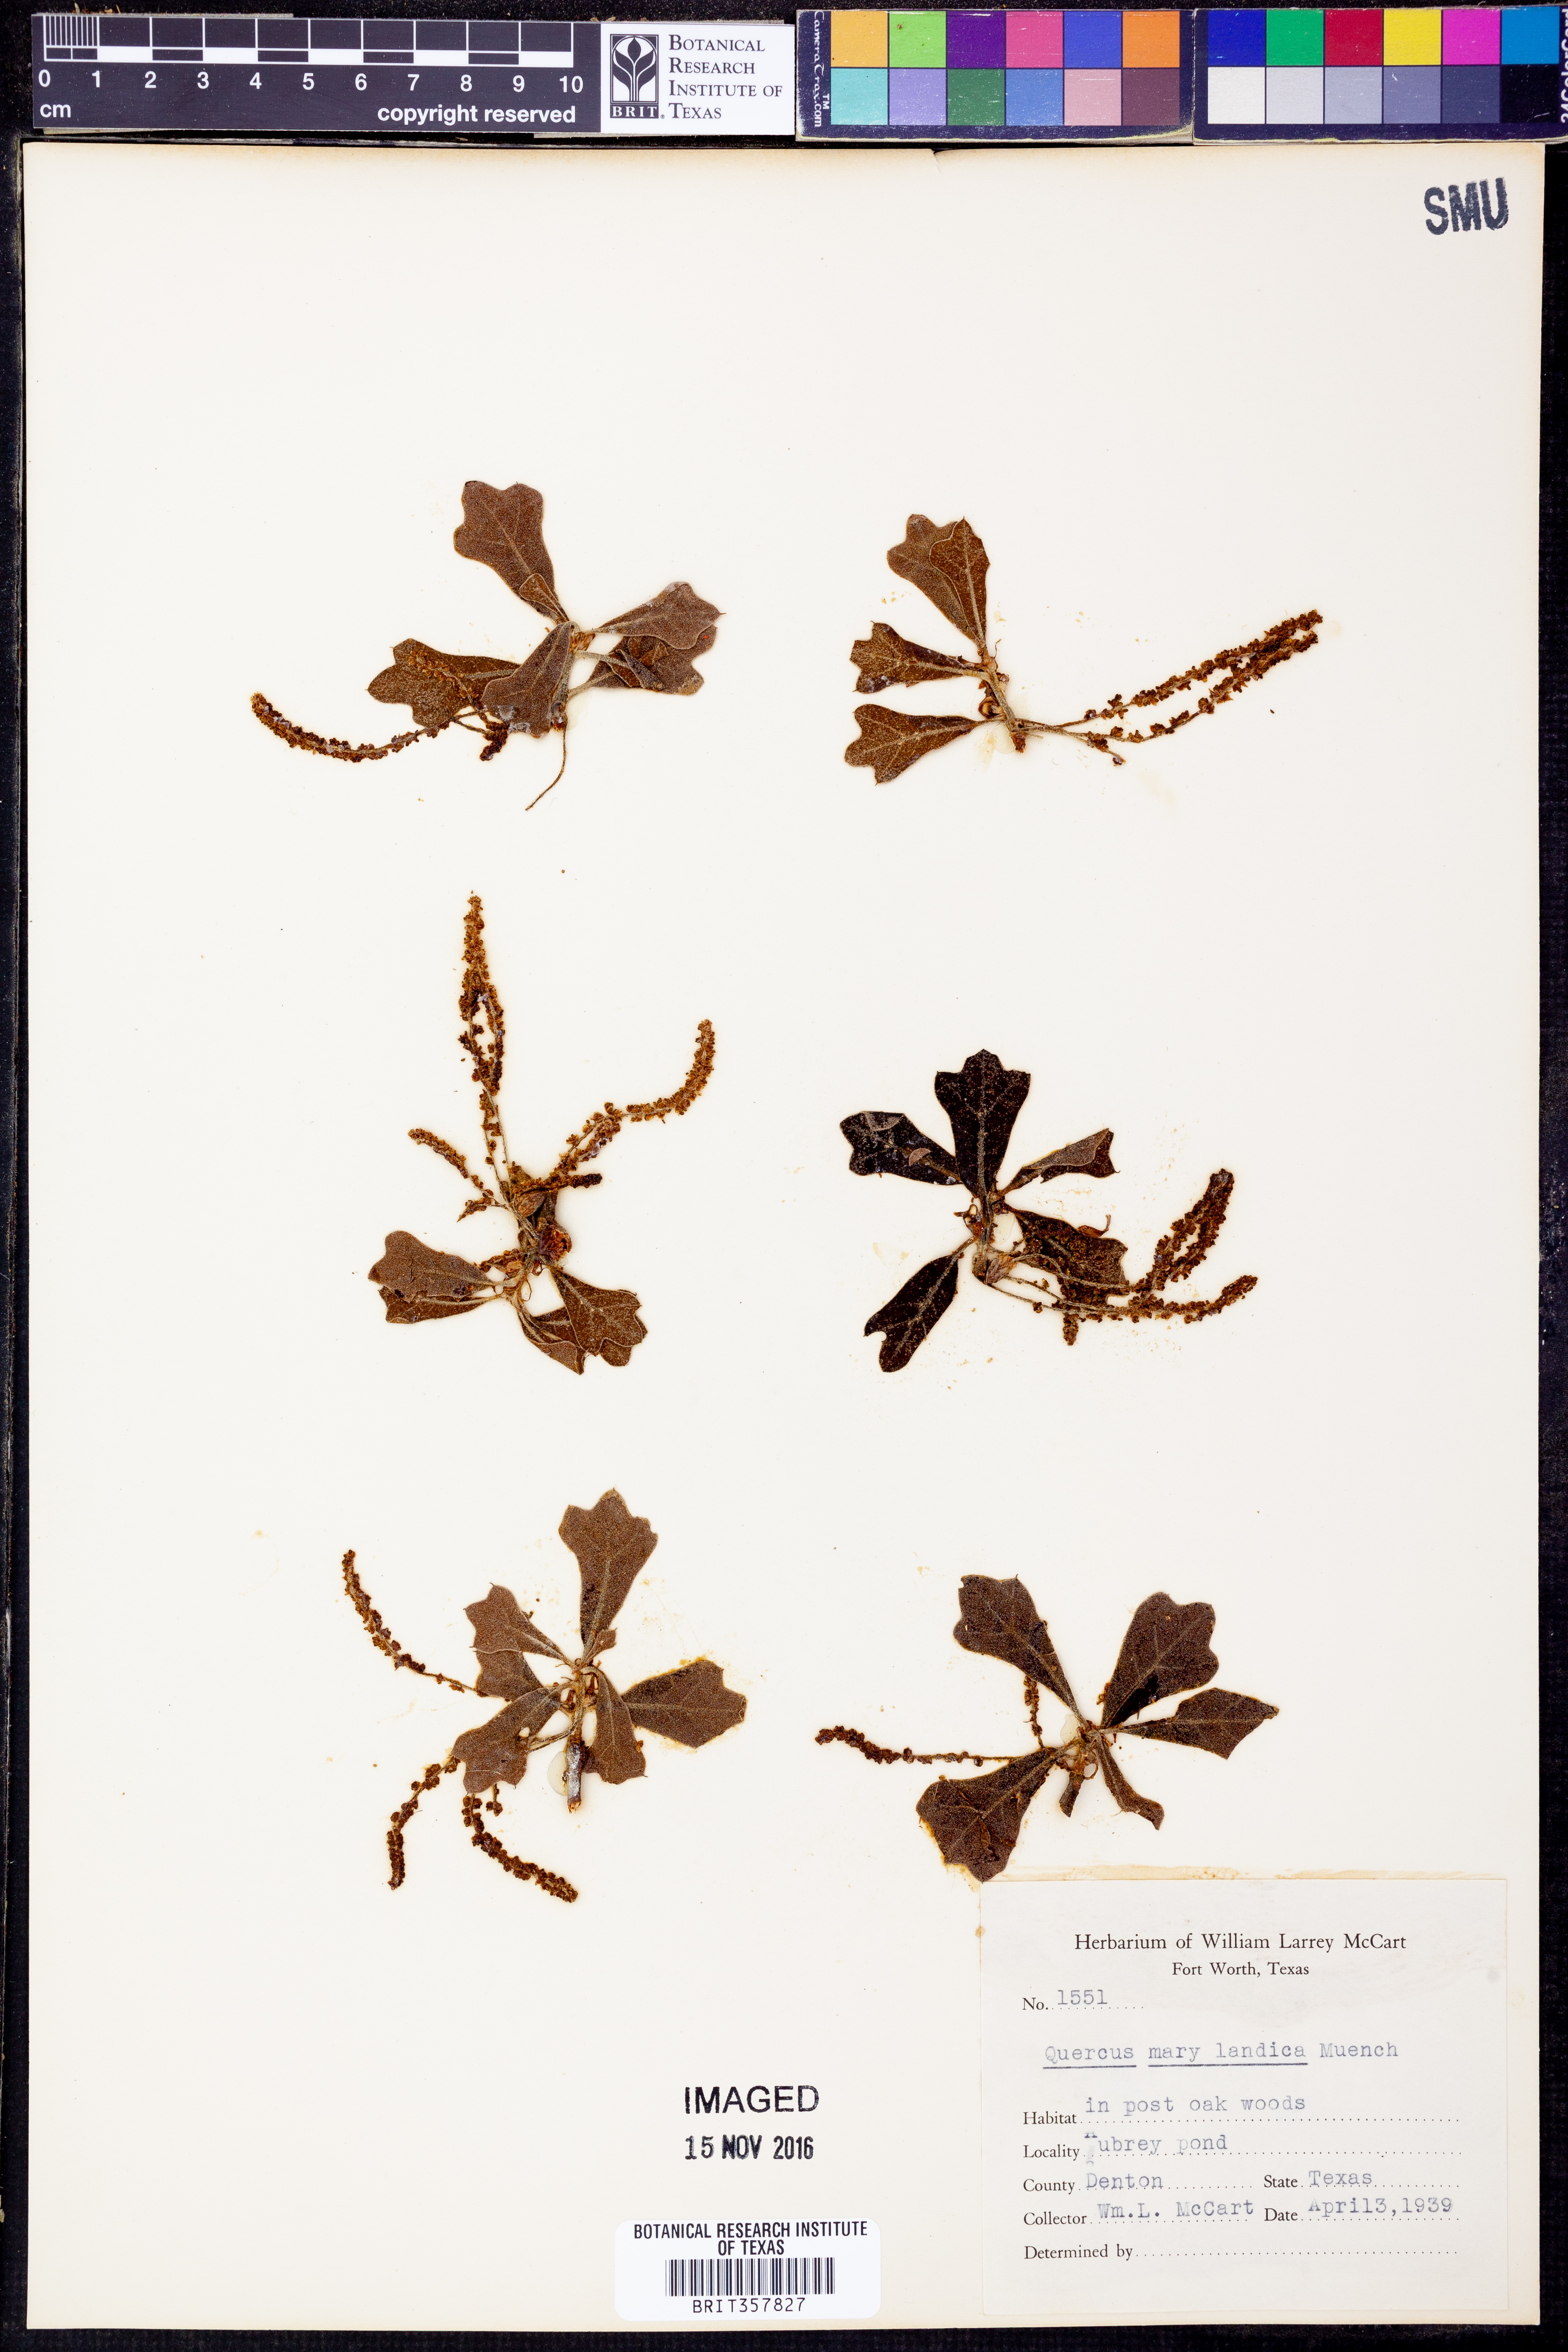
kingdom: Plantae
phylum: Tracheophyta
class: Magnoliopsida
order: Fagales
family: Fagaceae
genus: Quercus
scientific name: Quercus nigra
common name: Water oak
